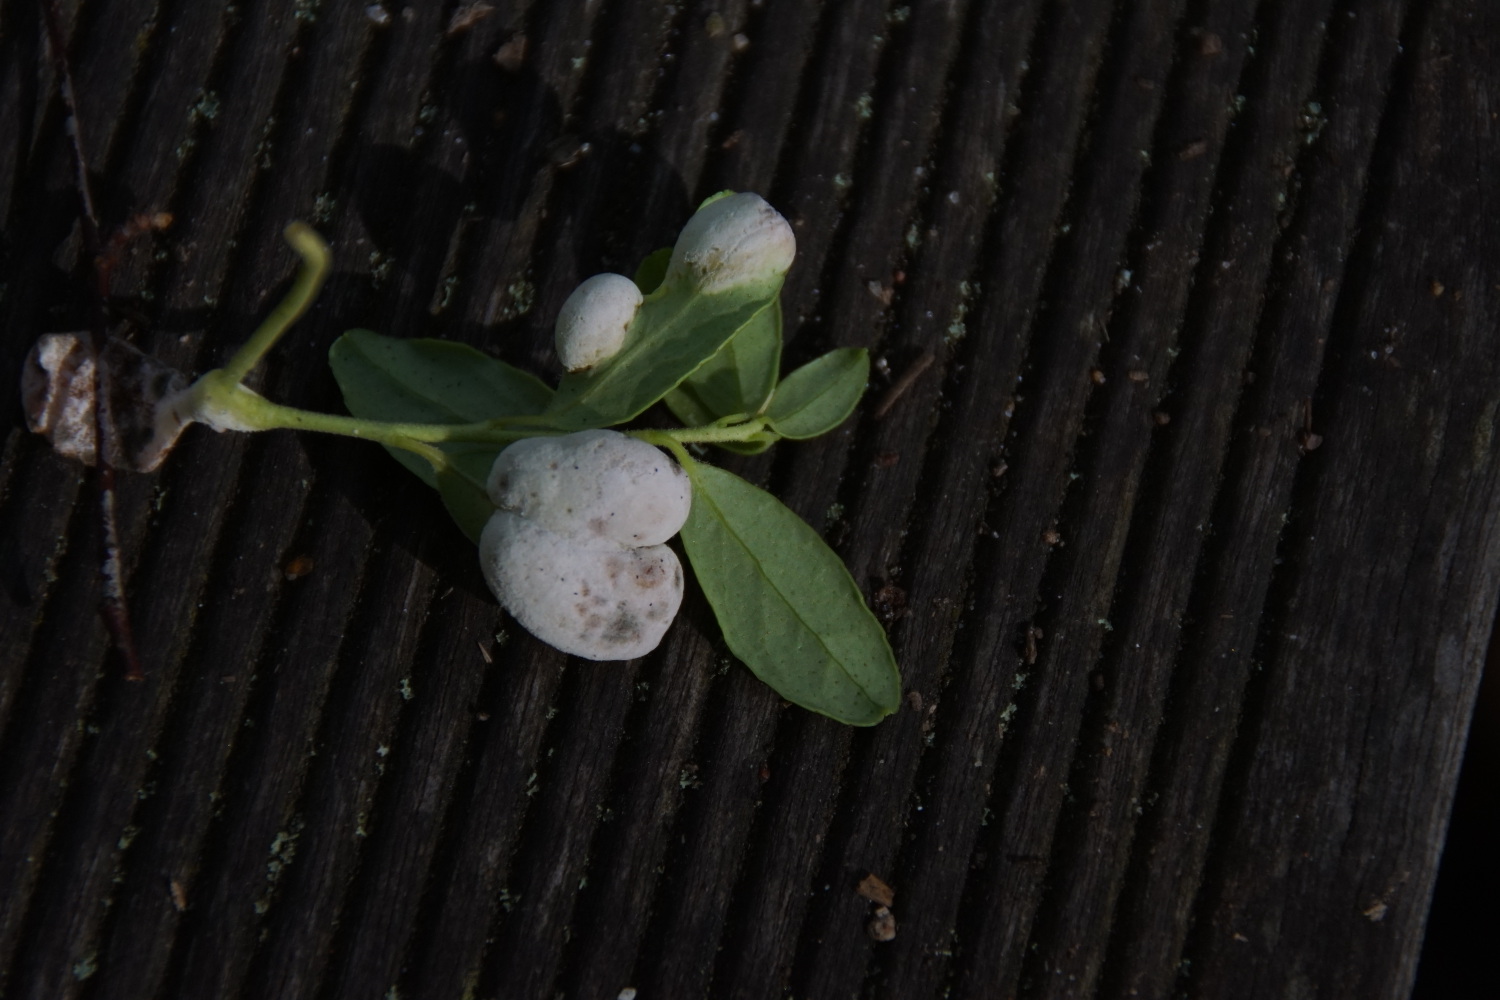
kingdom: Fungi
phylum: Basidiomycota
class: Exobasidiomycetes
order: Exobasidiales
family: Exobasidiaceae
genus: Exobasidium
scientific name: Exobasidium vaccinii
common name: tyttebærblad-bøllesvamp
